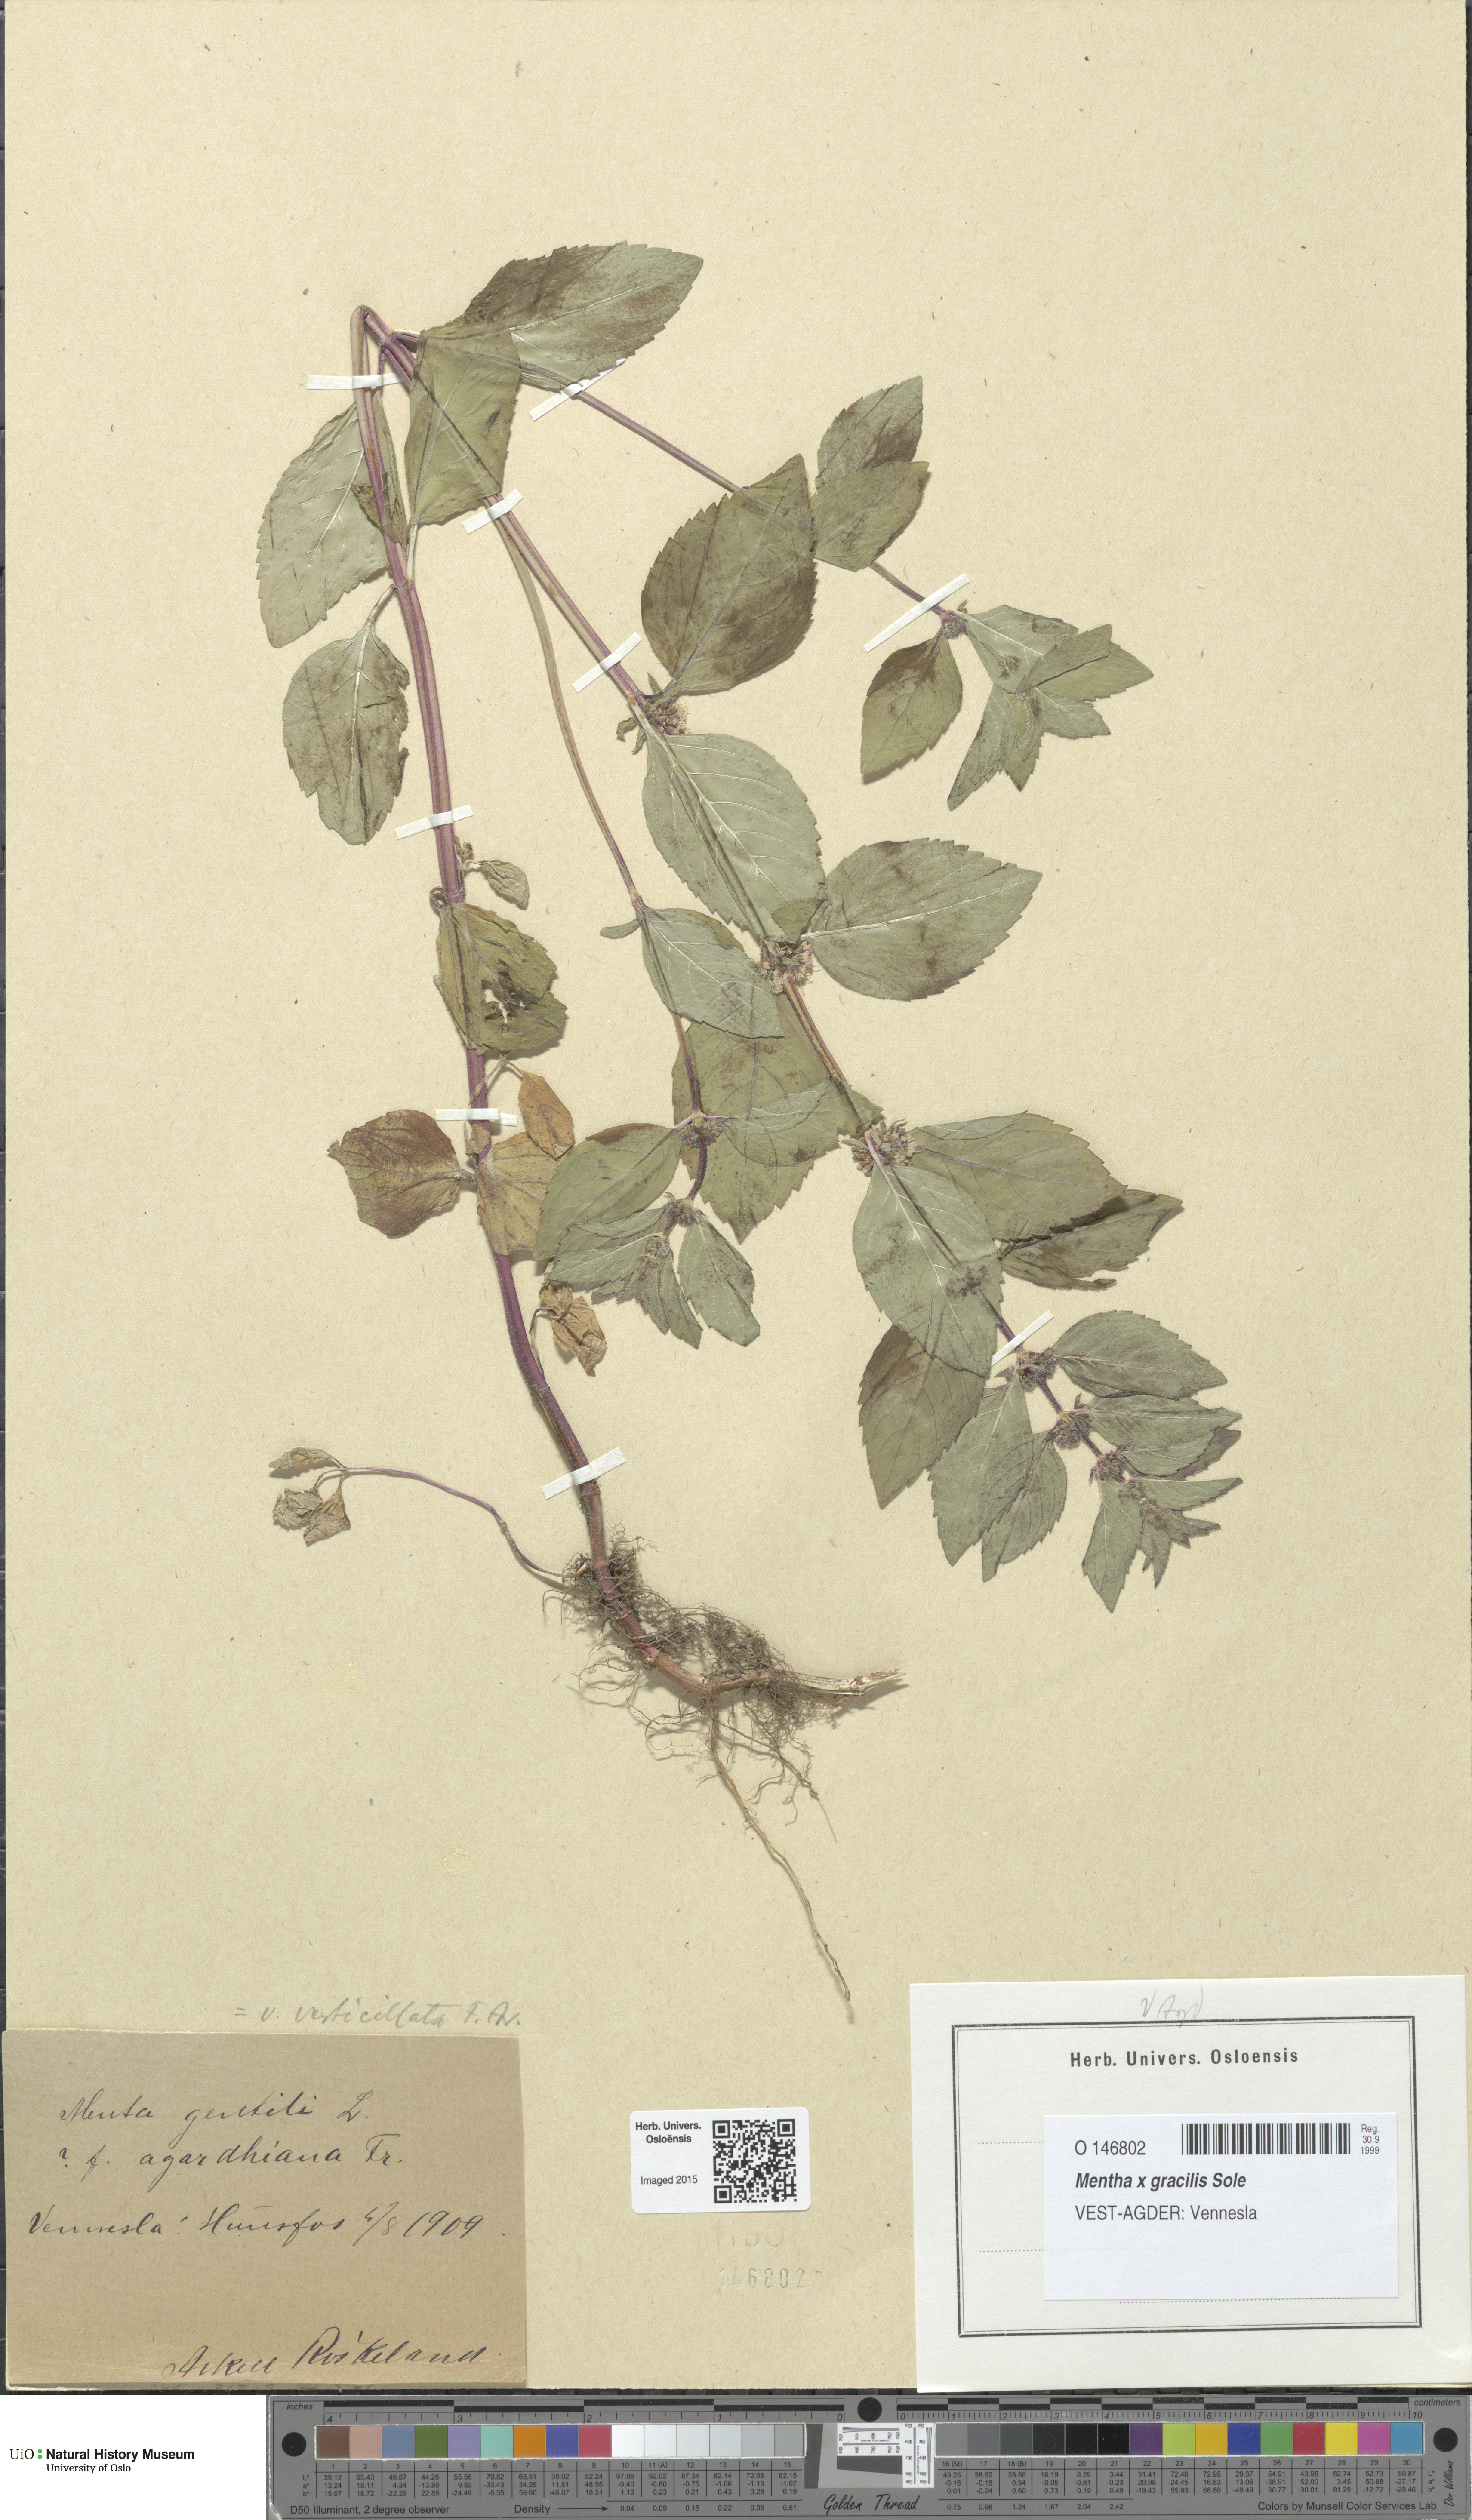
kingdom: Plantae
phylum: Tracheophyta
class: Magnoliopsida
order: Lamiales
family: Lamiaceae
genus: Mentha
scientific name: Mentha arvensis
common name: Corn mint
